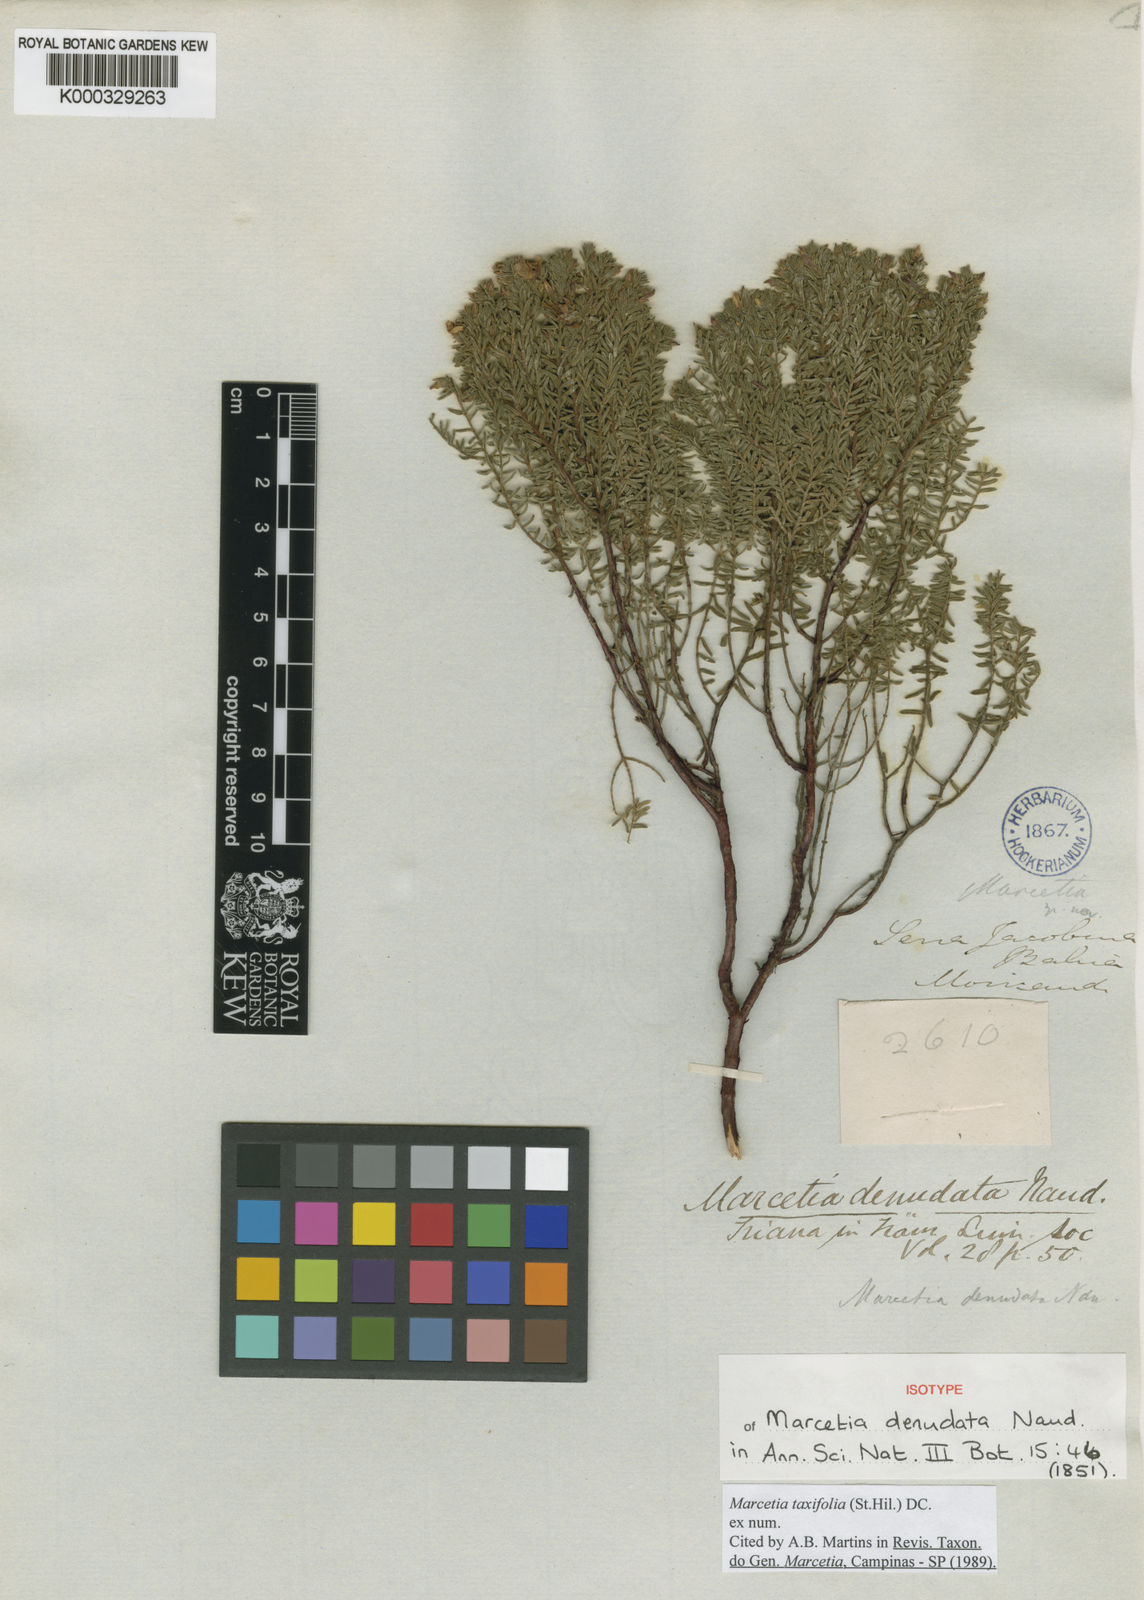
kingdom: Plantae
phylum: Tracheophyta
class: Magnoliopsida
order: Myrtales
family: Melastomataceae
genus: Marcetia
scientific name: Marcetia taxifolia
